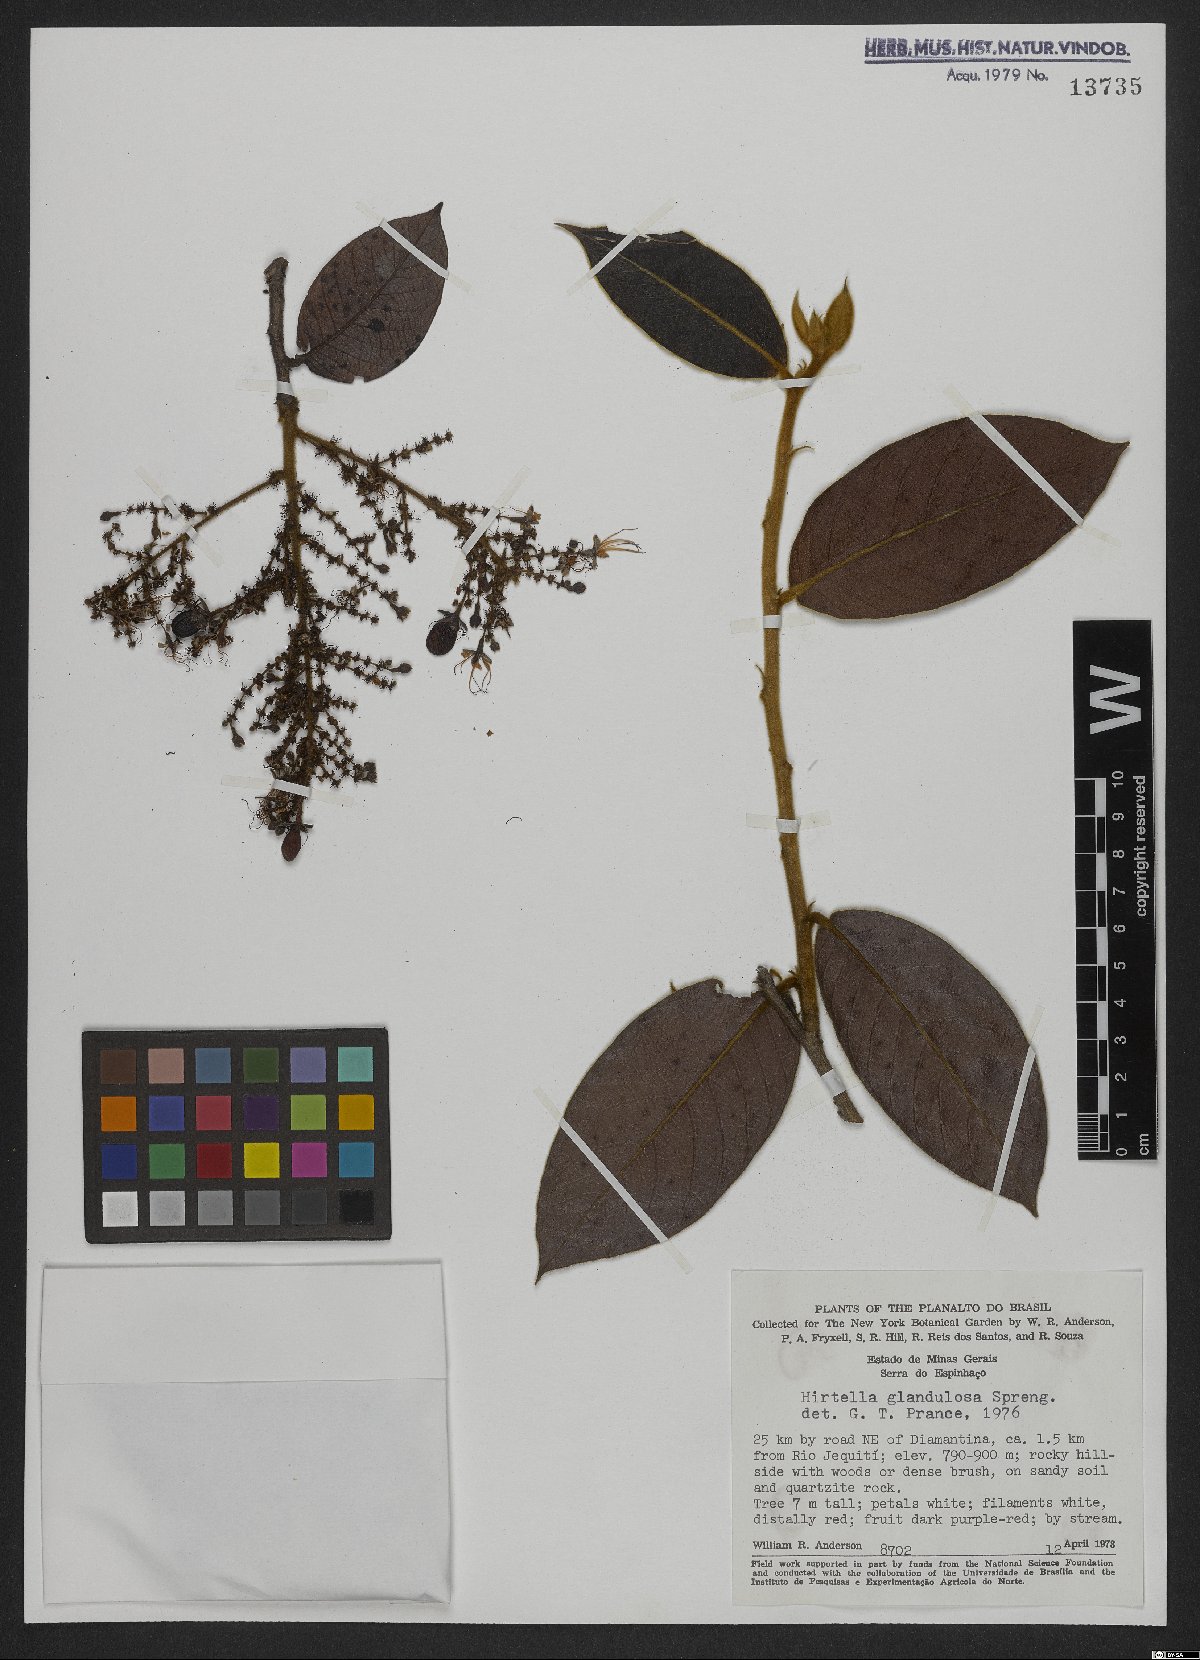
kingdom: Plantae
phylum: Tracheophyta
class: Magnoliopsida
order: Malpighiales
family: Chrysobalanaceae
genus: Hirtella
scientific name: Hirtella glandulosa
